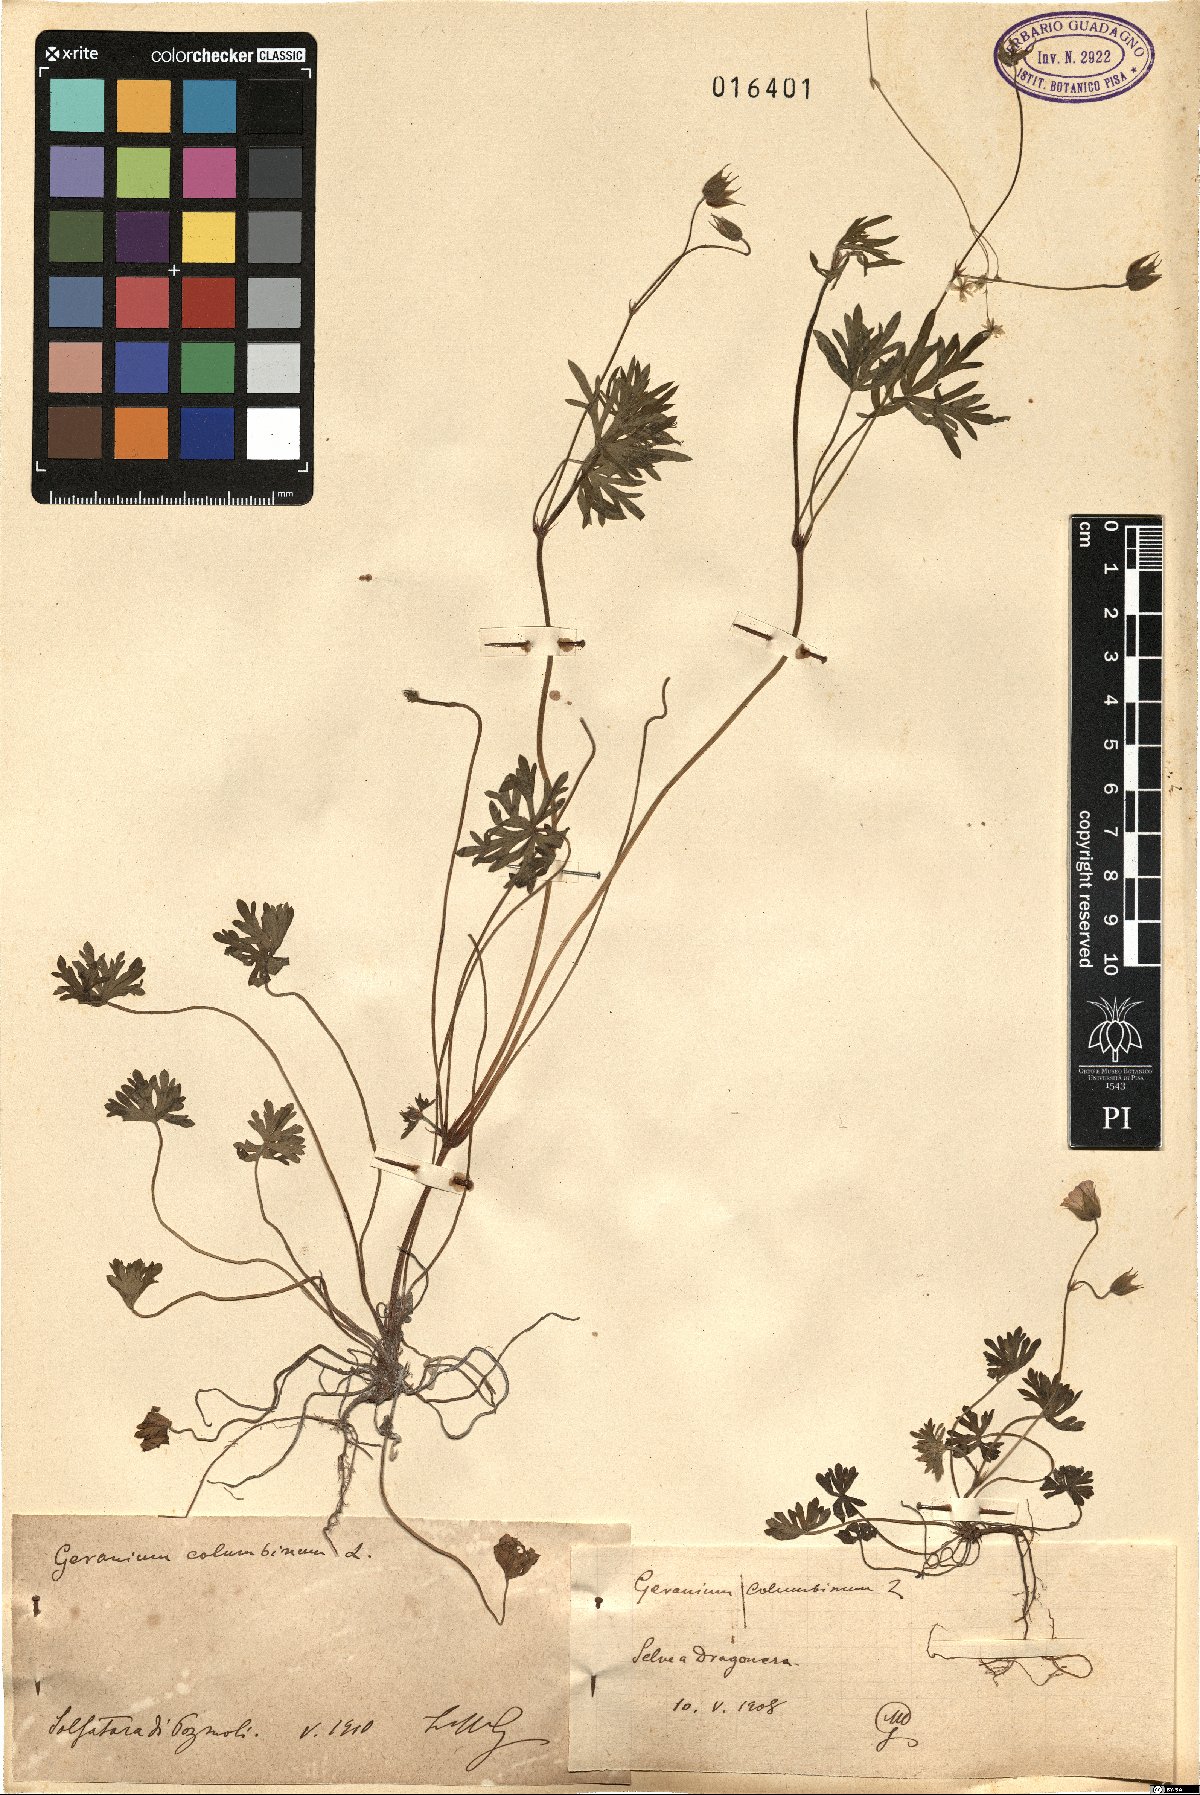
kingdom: Plantae
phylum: Tracheophyta
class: Magnoliopsida
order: Geraniales
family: Geraniaceae
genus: Geranium
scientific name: Geranium columbinum
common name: Long-stalked crane's-bill
